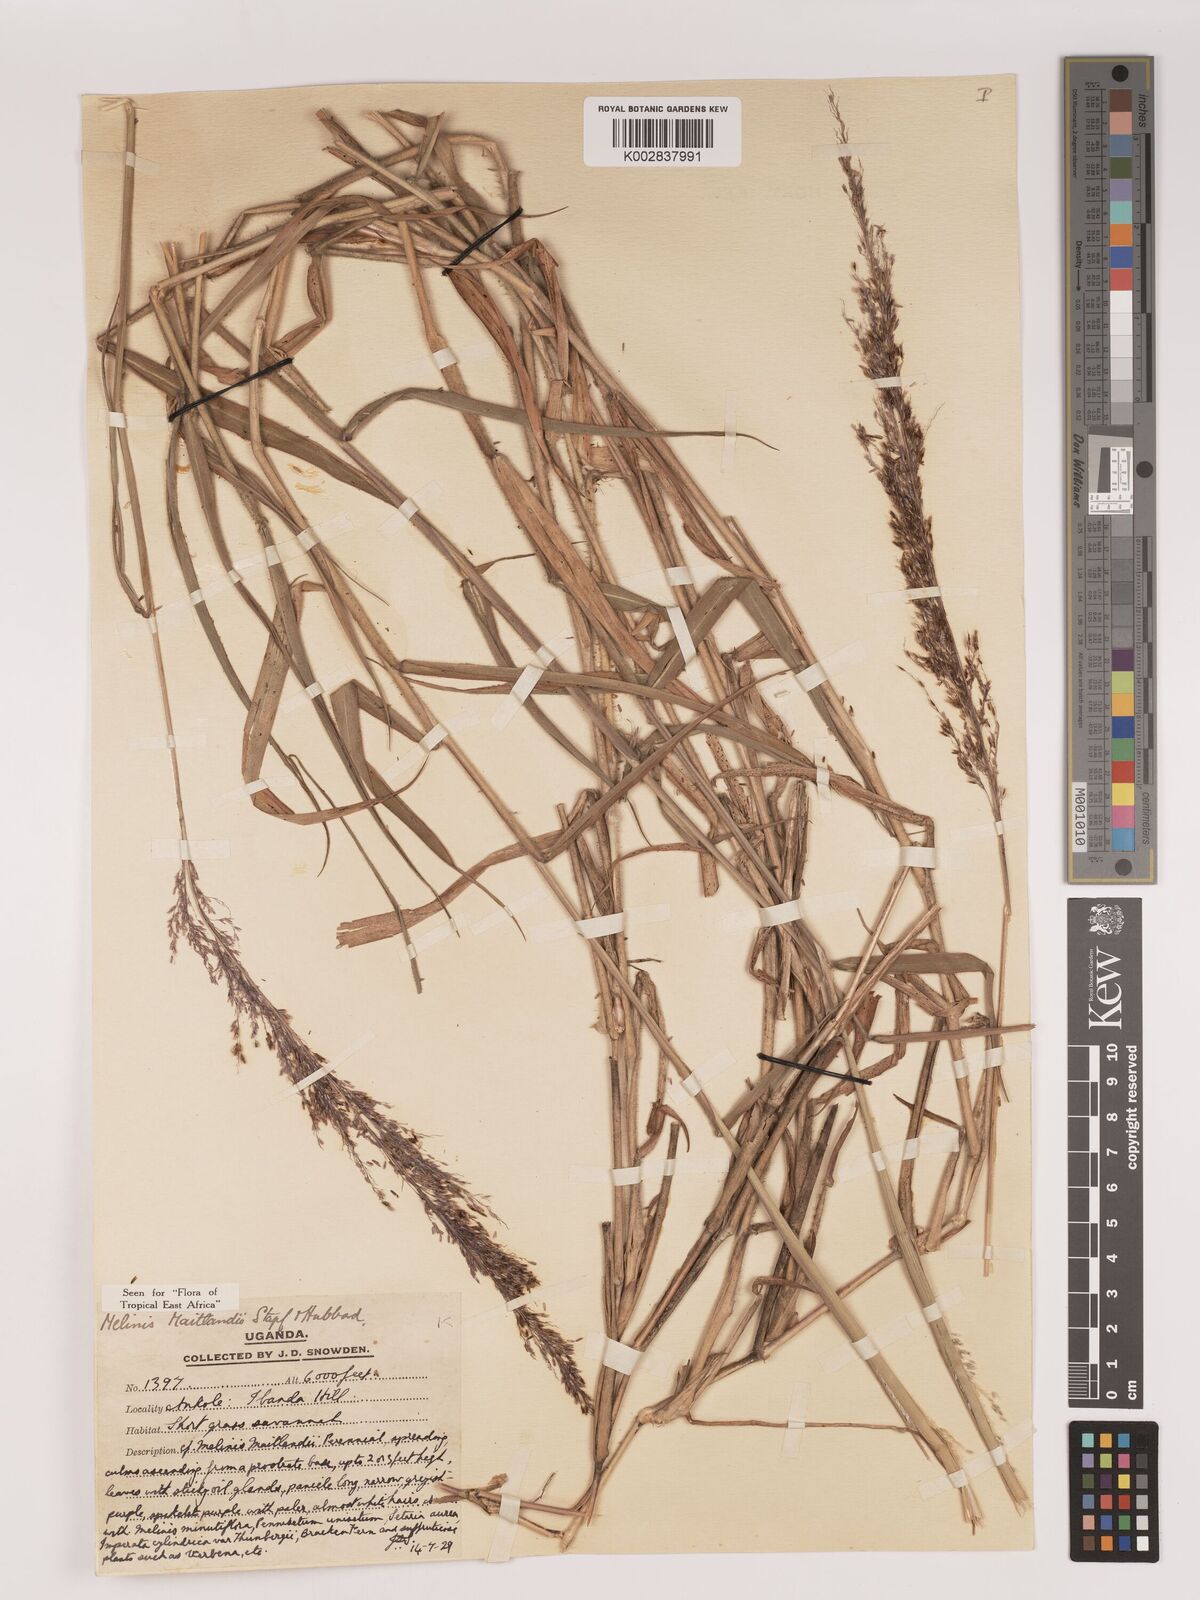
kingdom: Plantae
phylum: Tracheophyta
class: Liliopsida
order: Poales
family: Poaceae
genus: Melinis
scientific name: Melinis minutiflora
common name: Molassesgrass
